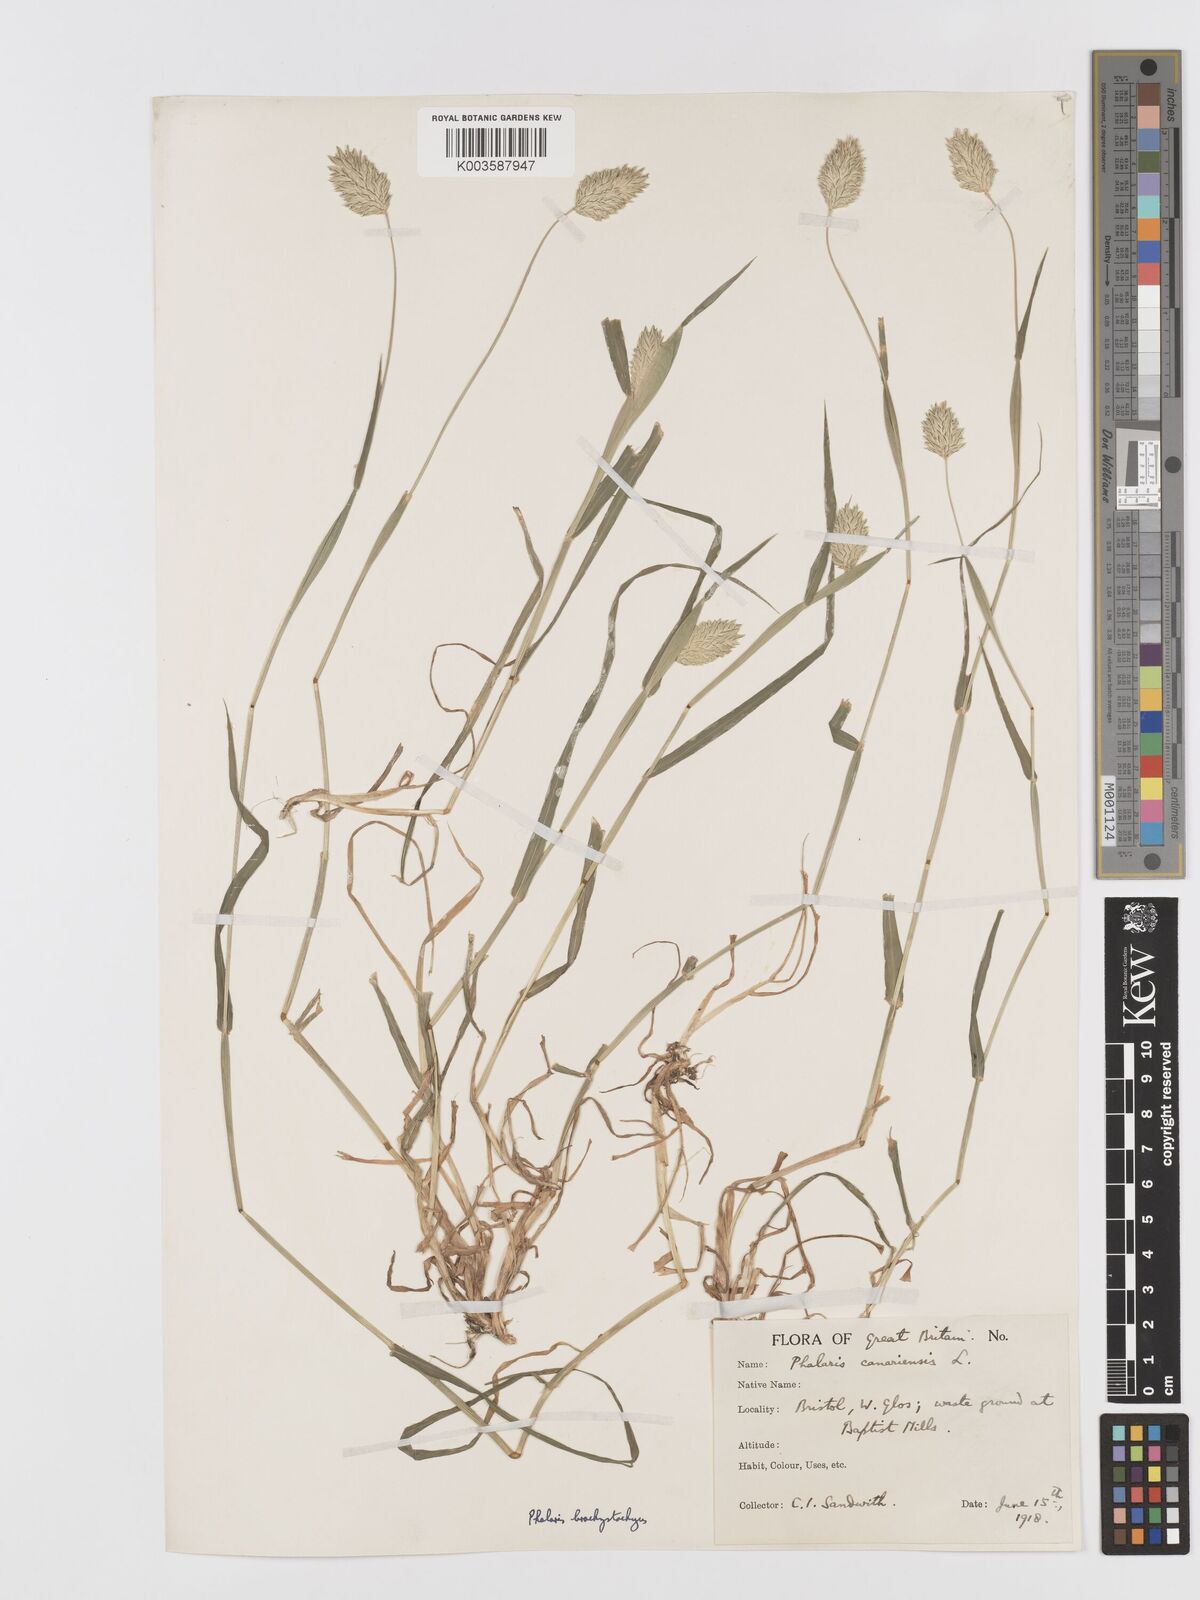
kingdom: Plantae
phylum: Tracheophyta
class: Liliopsida
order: Poales
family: Poaceae
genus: Phalaris
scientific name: Phalaris brachystachys
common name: Confused canary-grass
